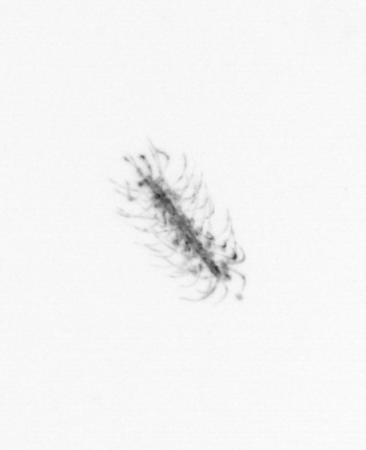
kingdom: Chromista
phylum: Ochrophyta
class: Bacillariophyceae
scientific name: Bacillariophyceae
